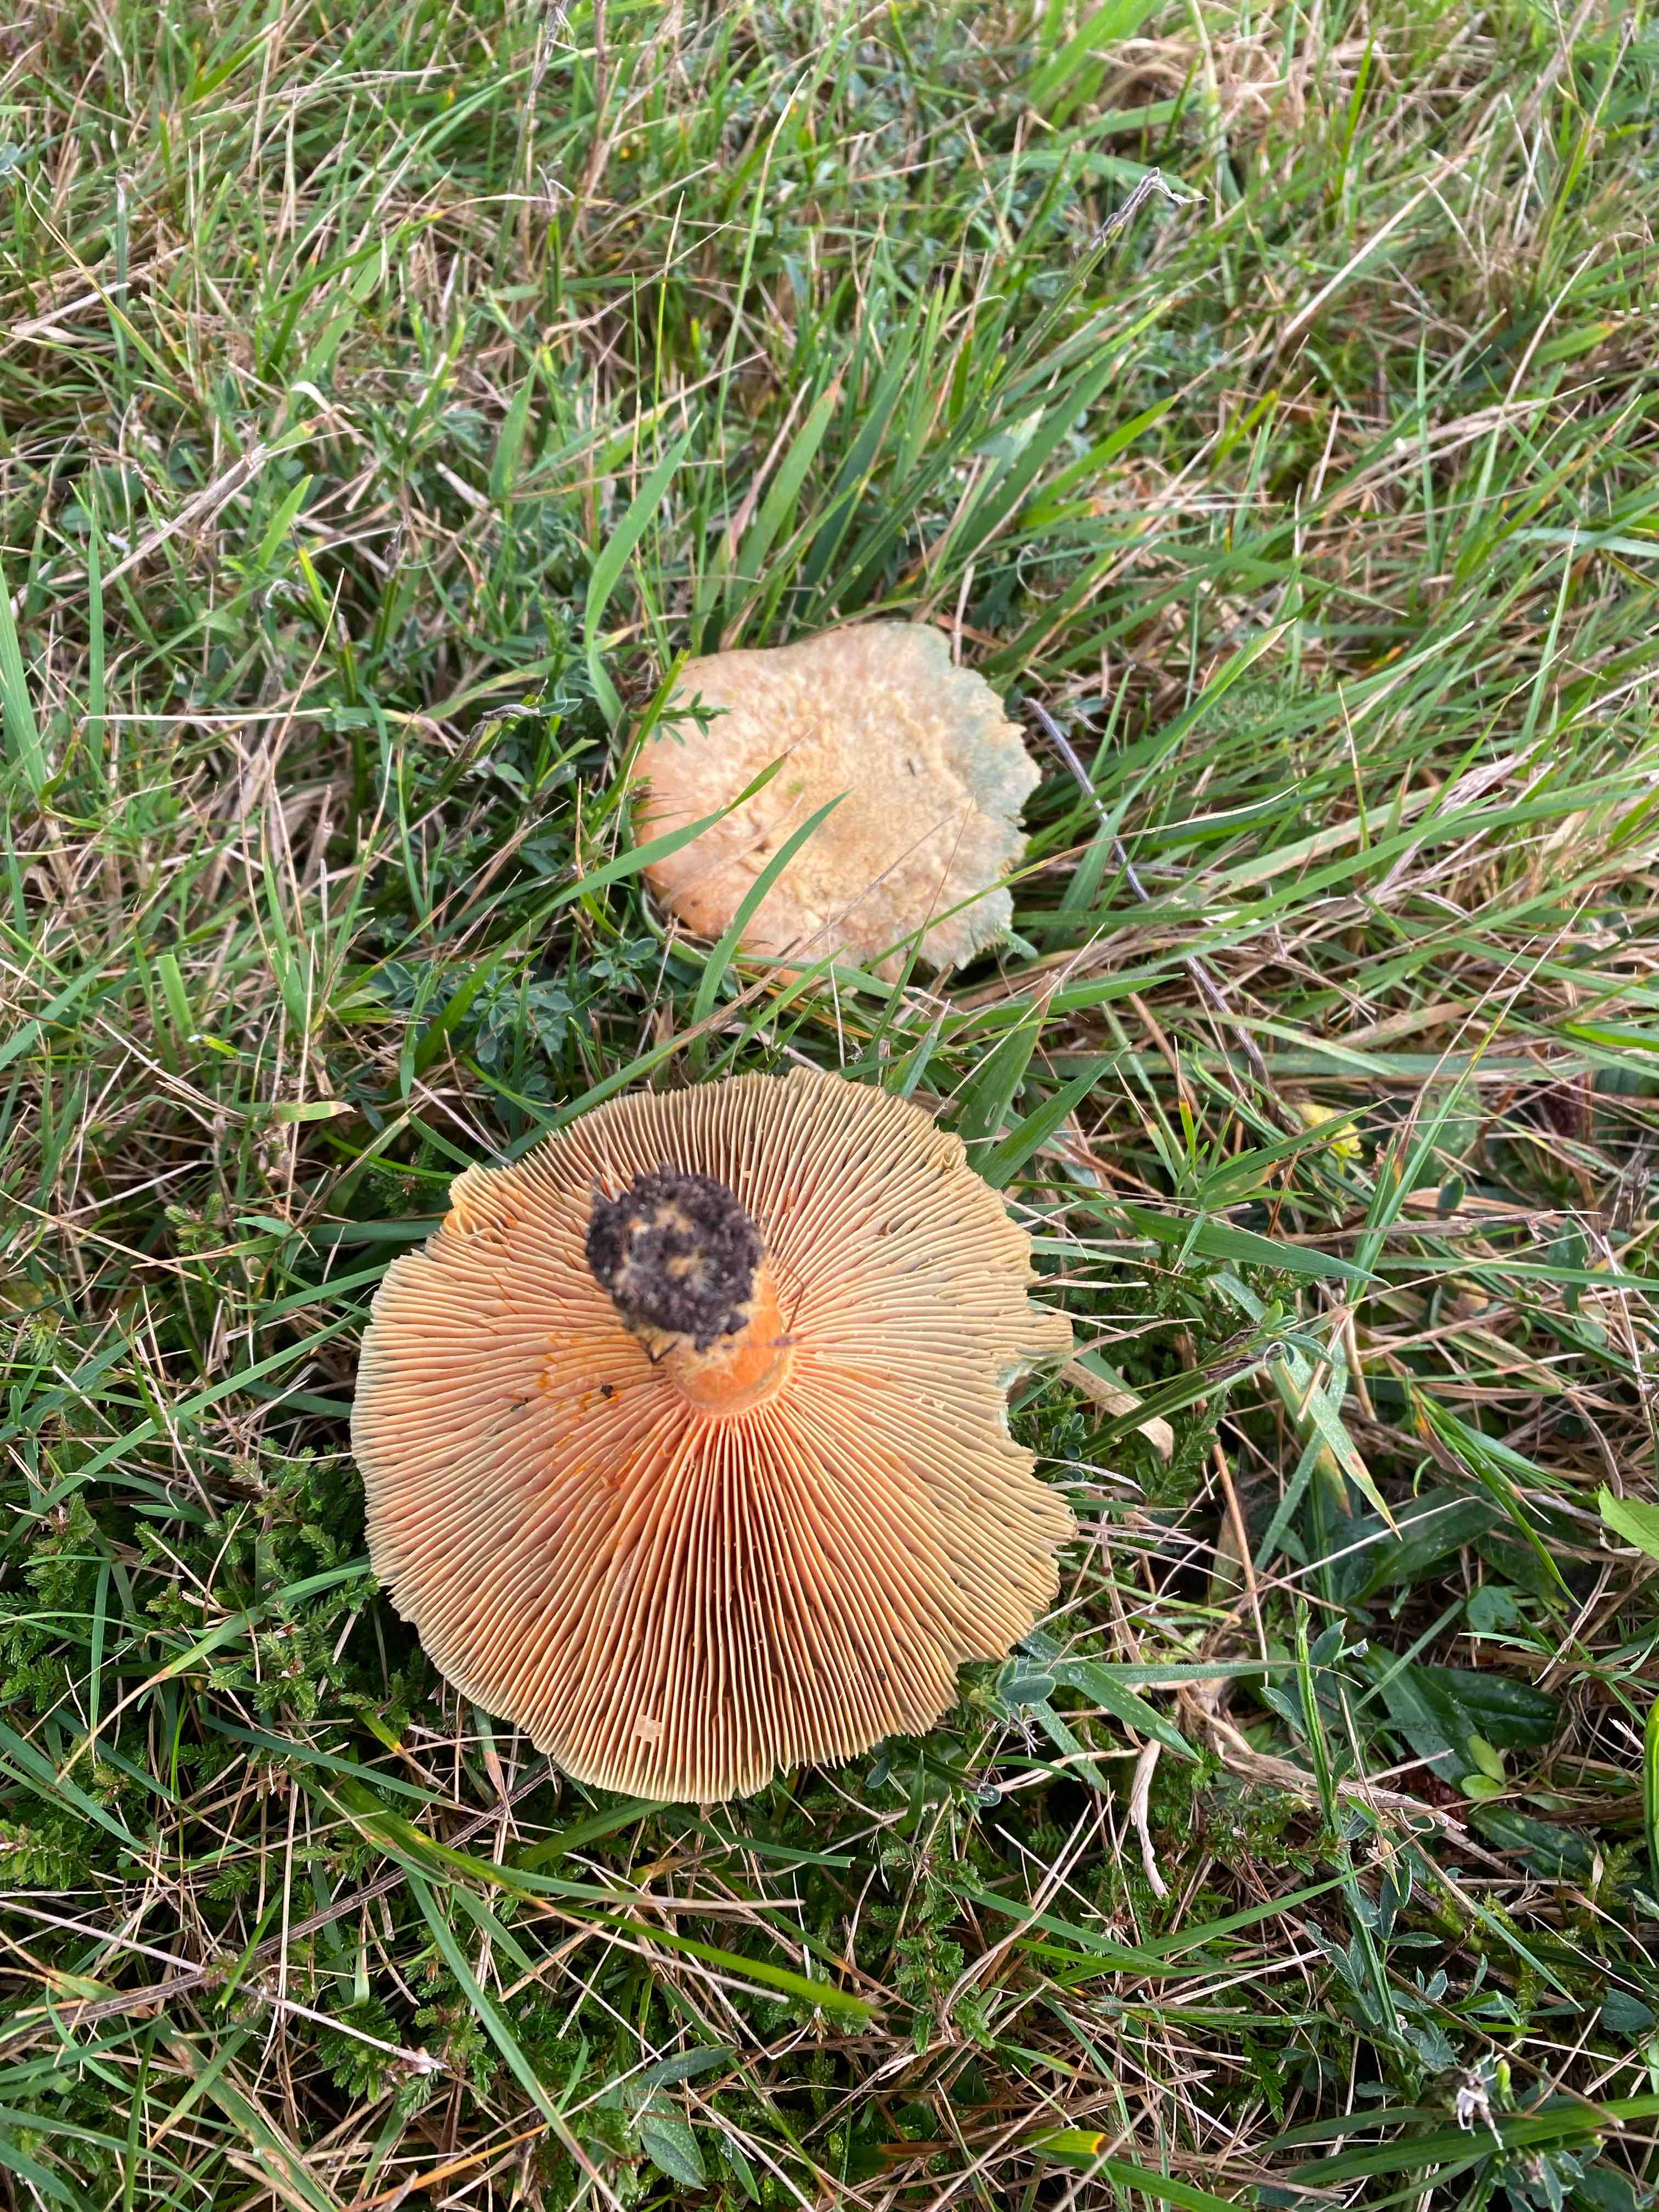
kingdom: Fungi
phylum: Basidiomycota
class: Agaricomycetes
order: Russulales
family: Russulaceae
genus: Lactarius
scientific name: Lactarius deterrimus
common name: gran-mælkehat
